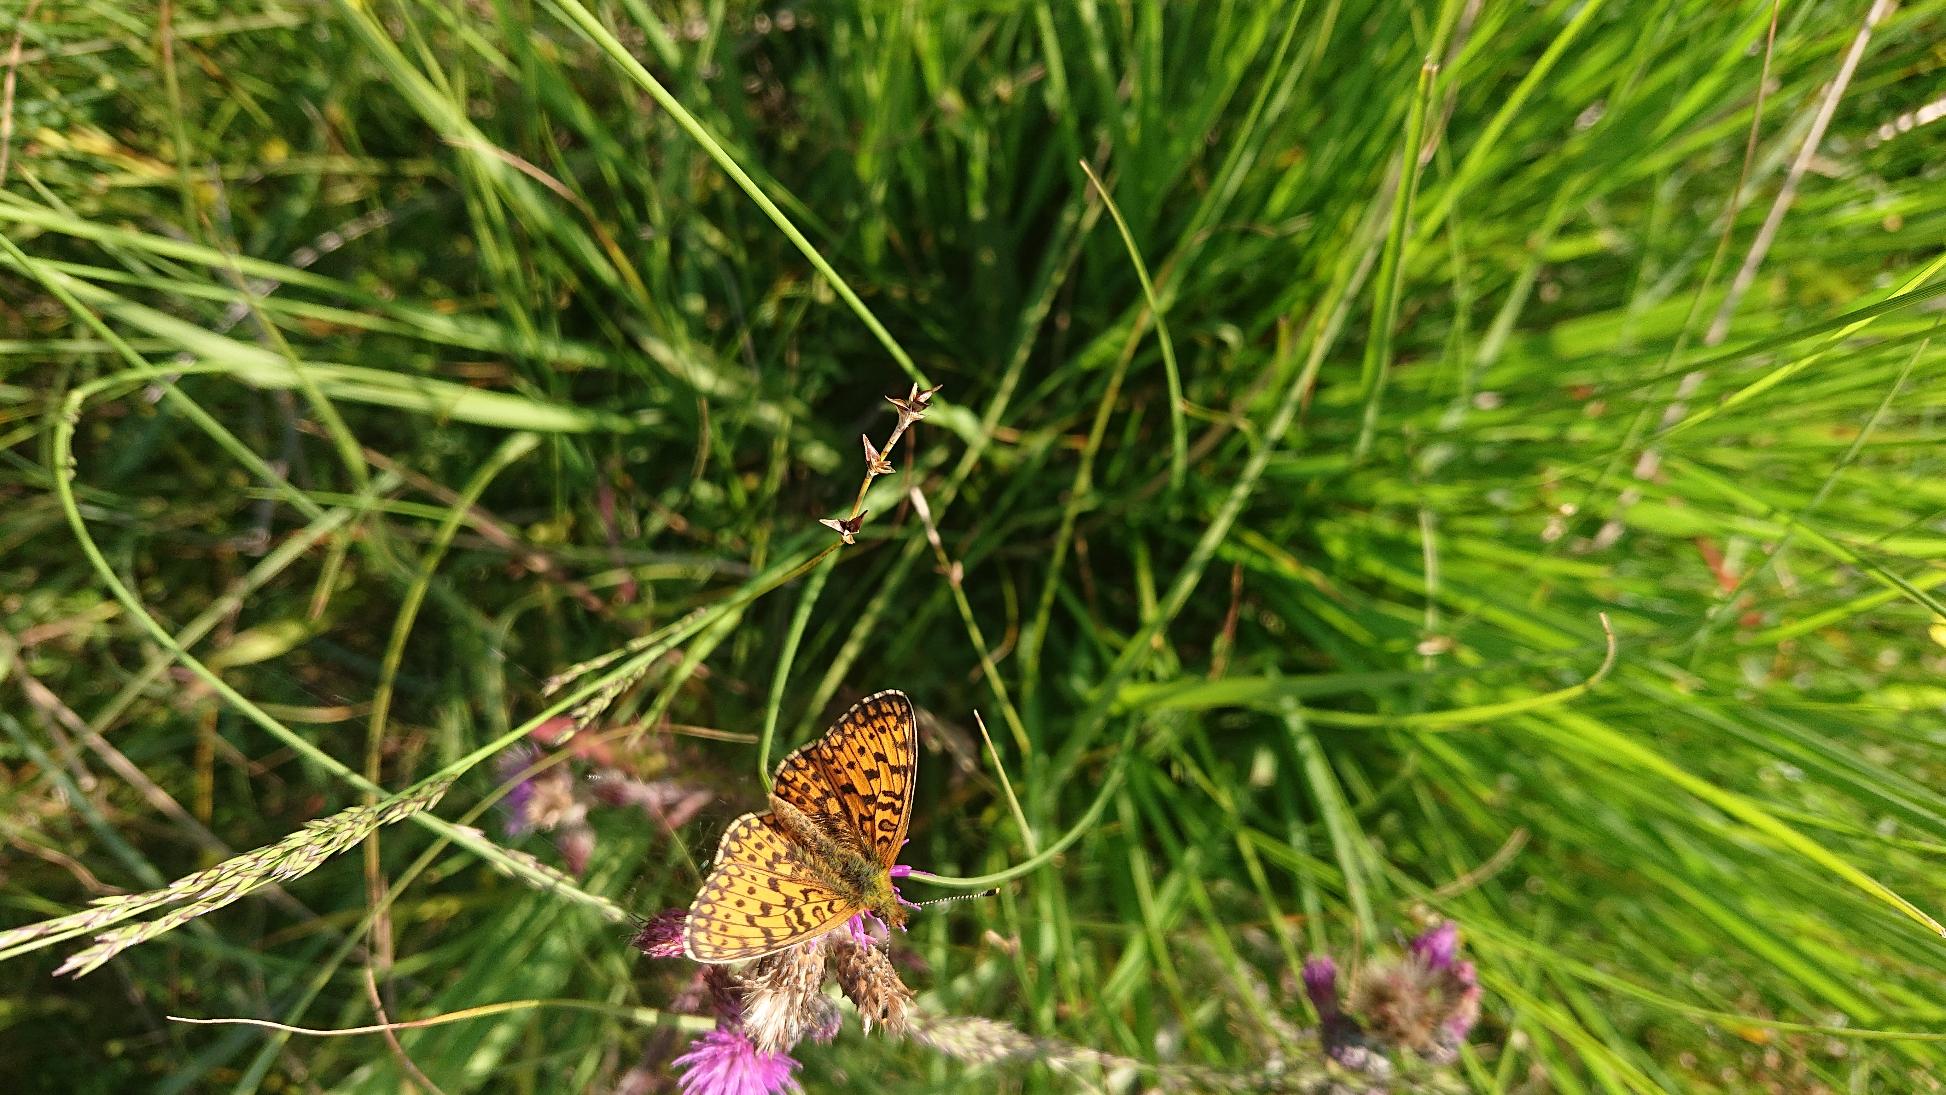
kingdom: Animalia
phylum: Arthropoda
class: Insecta
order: Lepidoptera
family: Nymphalidae
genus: Boloria
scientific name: Boloria selene
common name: Brunlig perlemorsommerfugl
